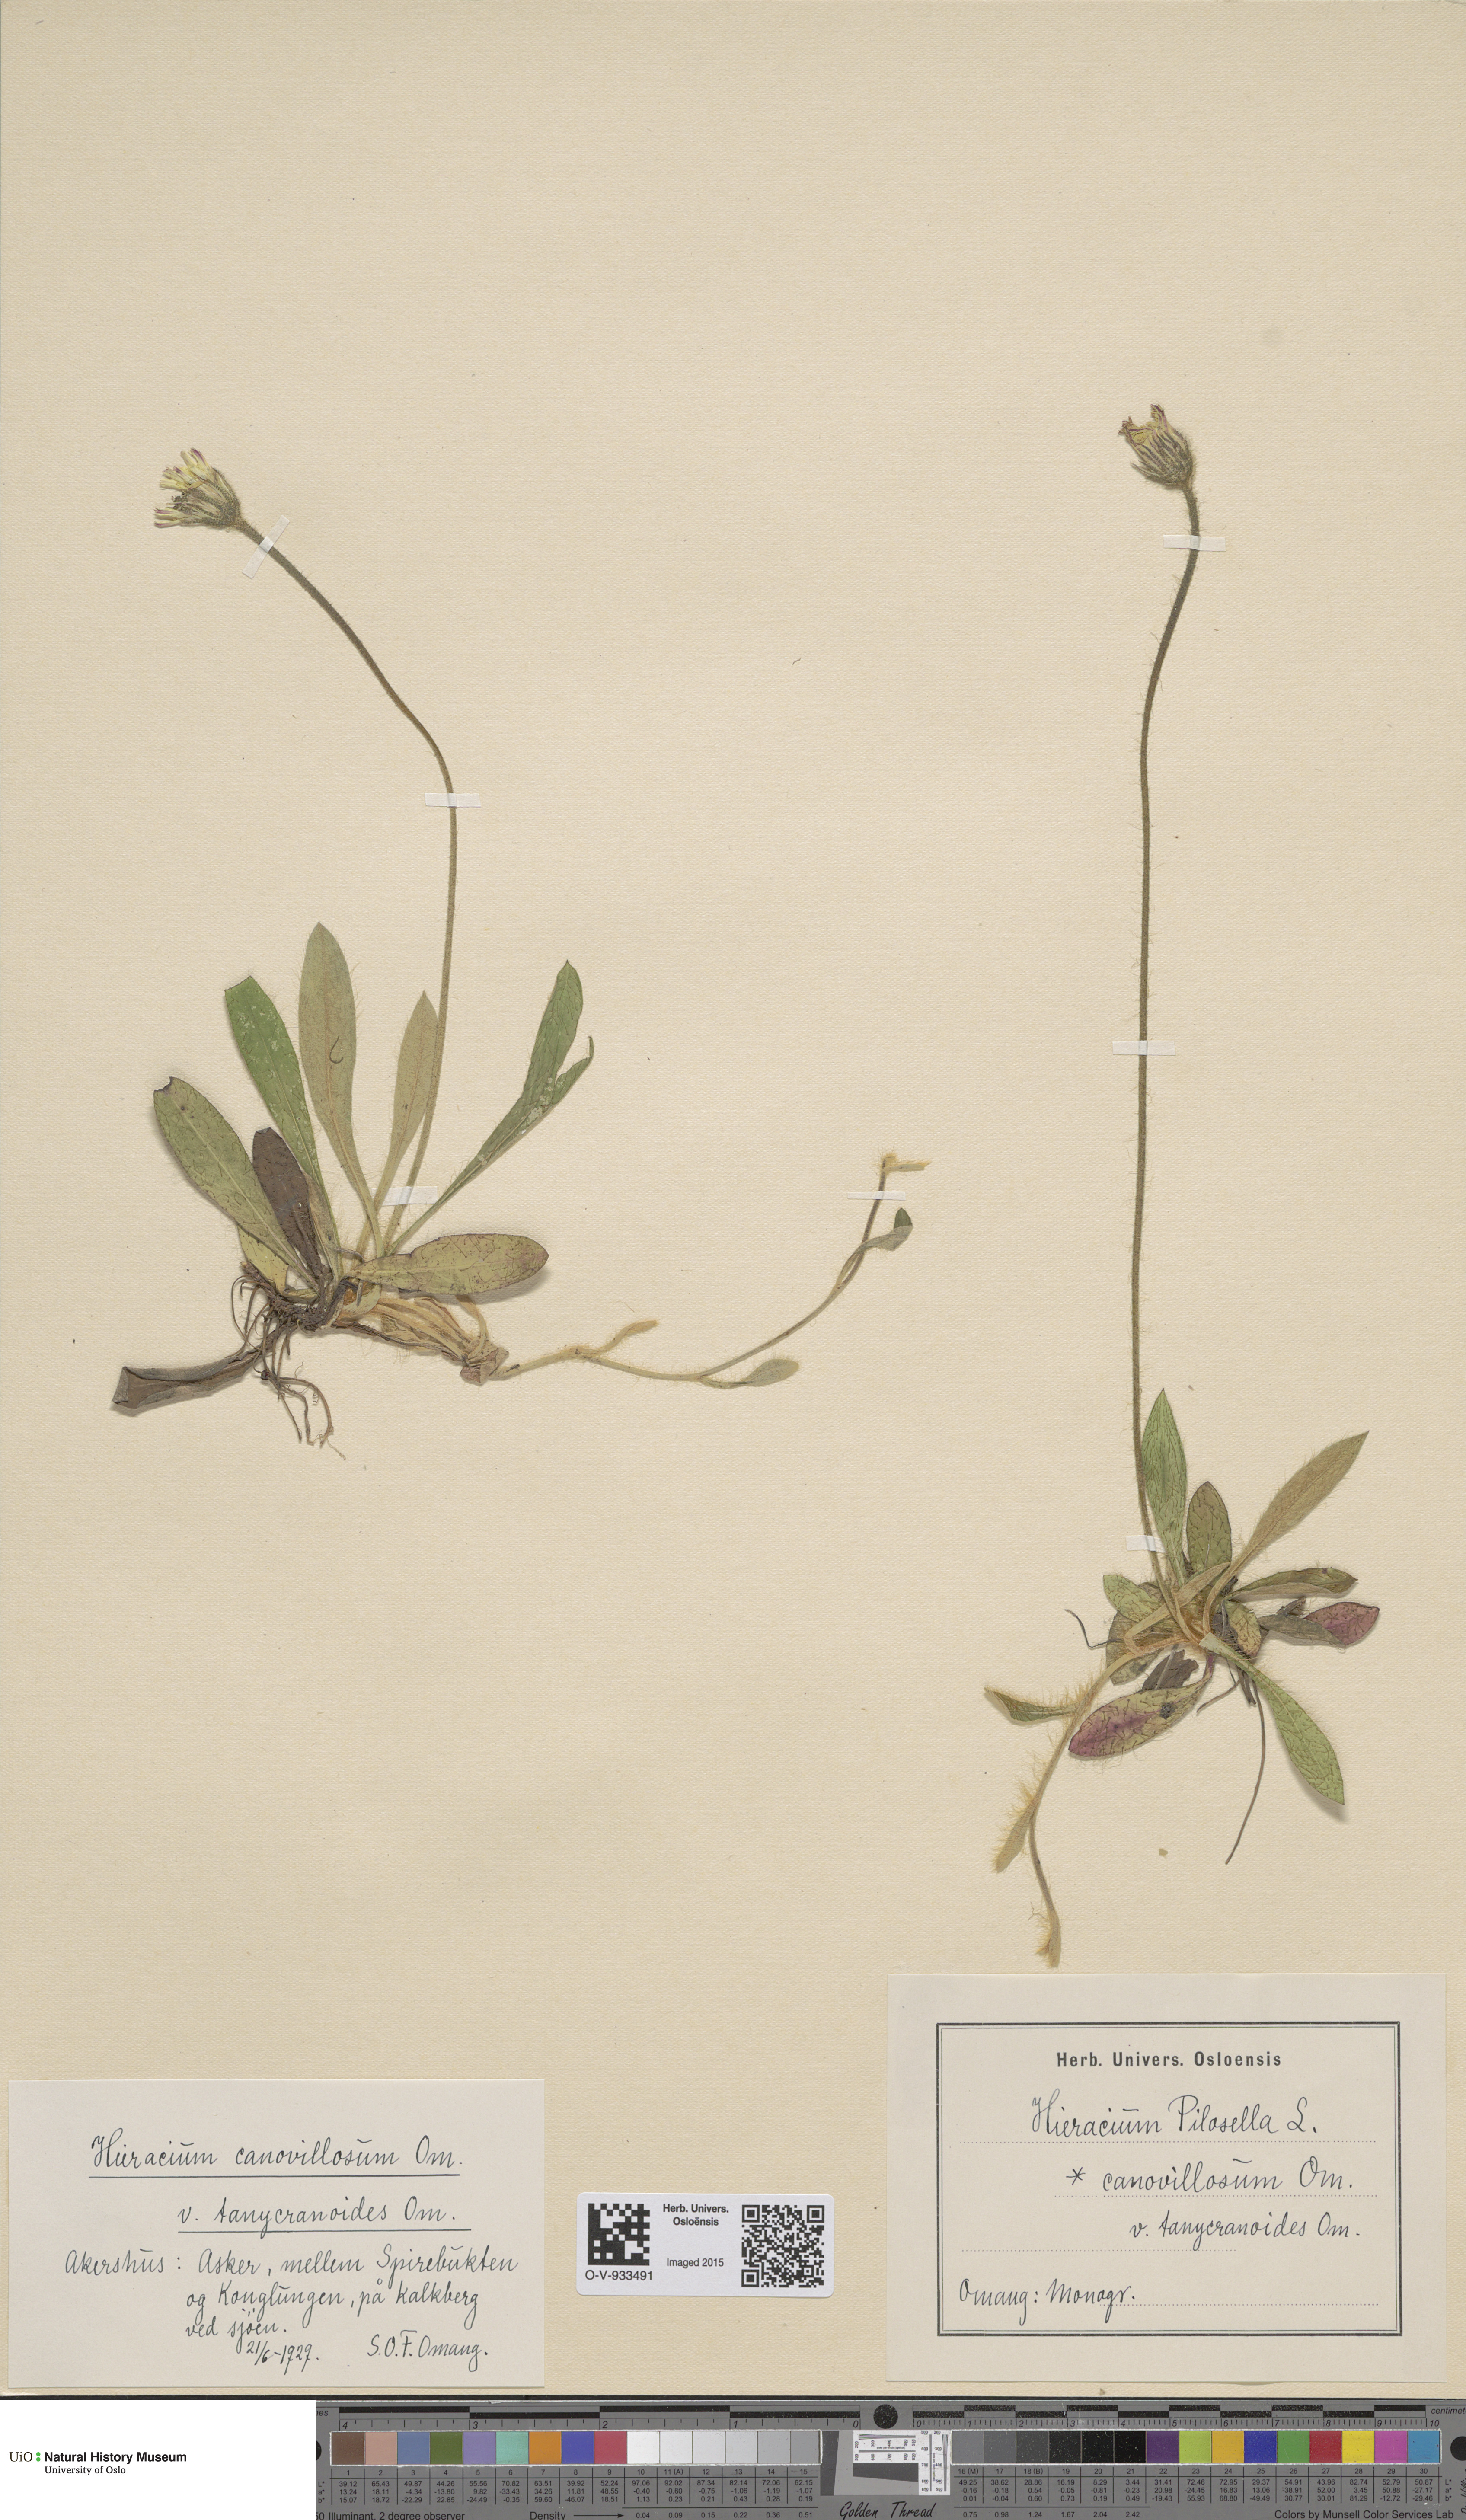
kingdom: Plantae
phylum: Tracheophyta
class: Magnoliopsida
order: Asterales
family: Asteraceae
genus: Pilosella
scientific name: Pilosella officinarum
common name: Mouse-ear hawkweed
